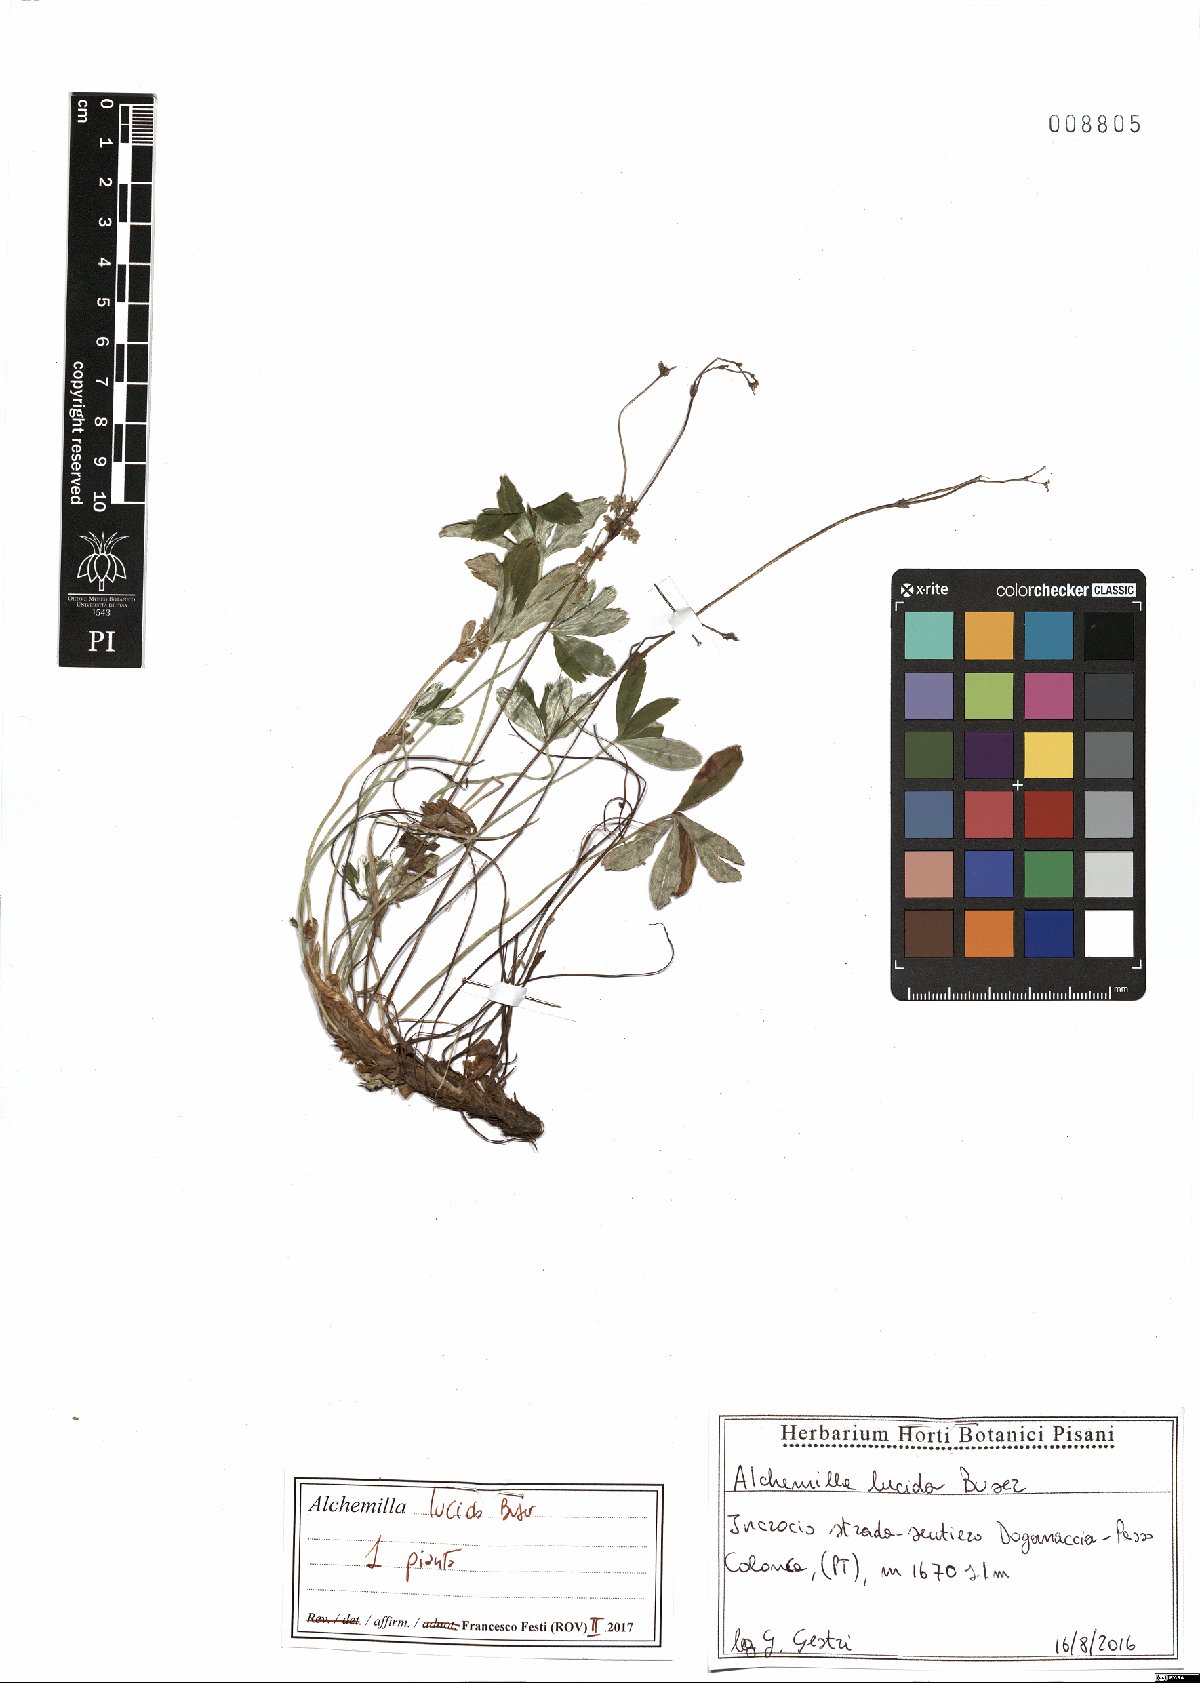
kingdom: Plantae
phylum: Tracheophyta
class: Magnoliopsida
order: Rosales
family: Rosaceae
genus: Alchemilla
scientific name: Alchemilla lucida
